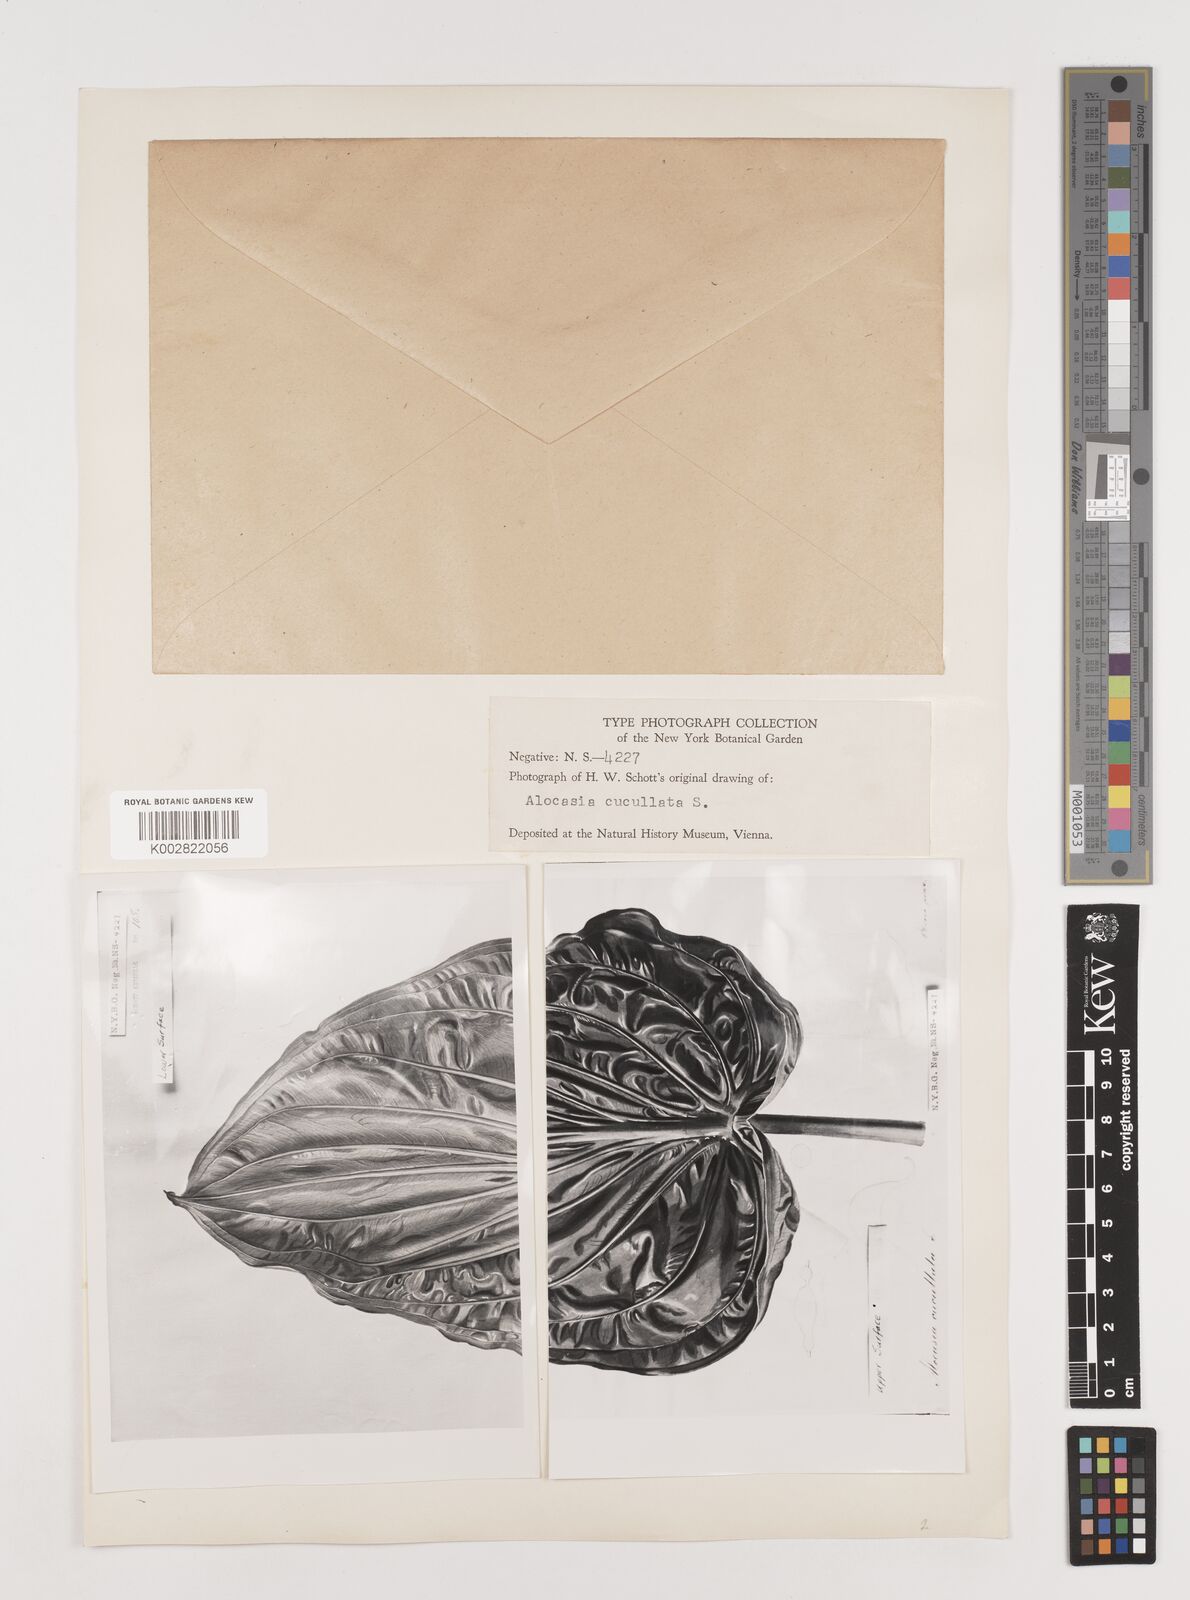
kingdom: Plantae
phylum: Tracheophyta
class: Liliopsida
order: Alismatales
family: Araceae
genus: Alocasia
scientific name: Alocasia cucullata
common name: Buddha's hand
